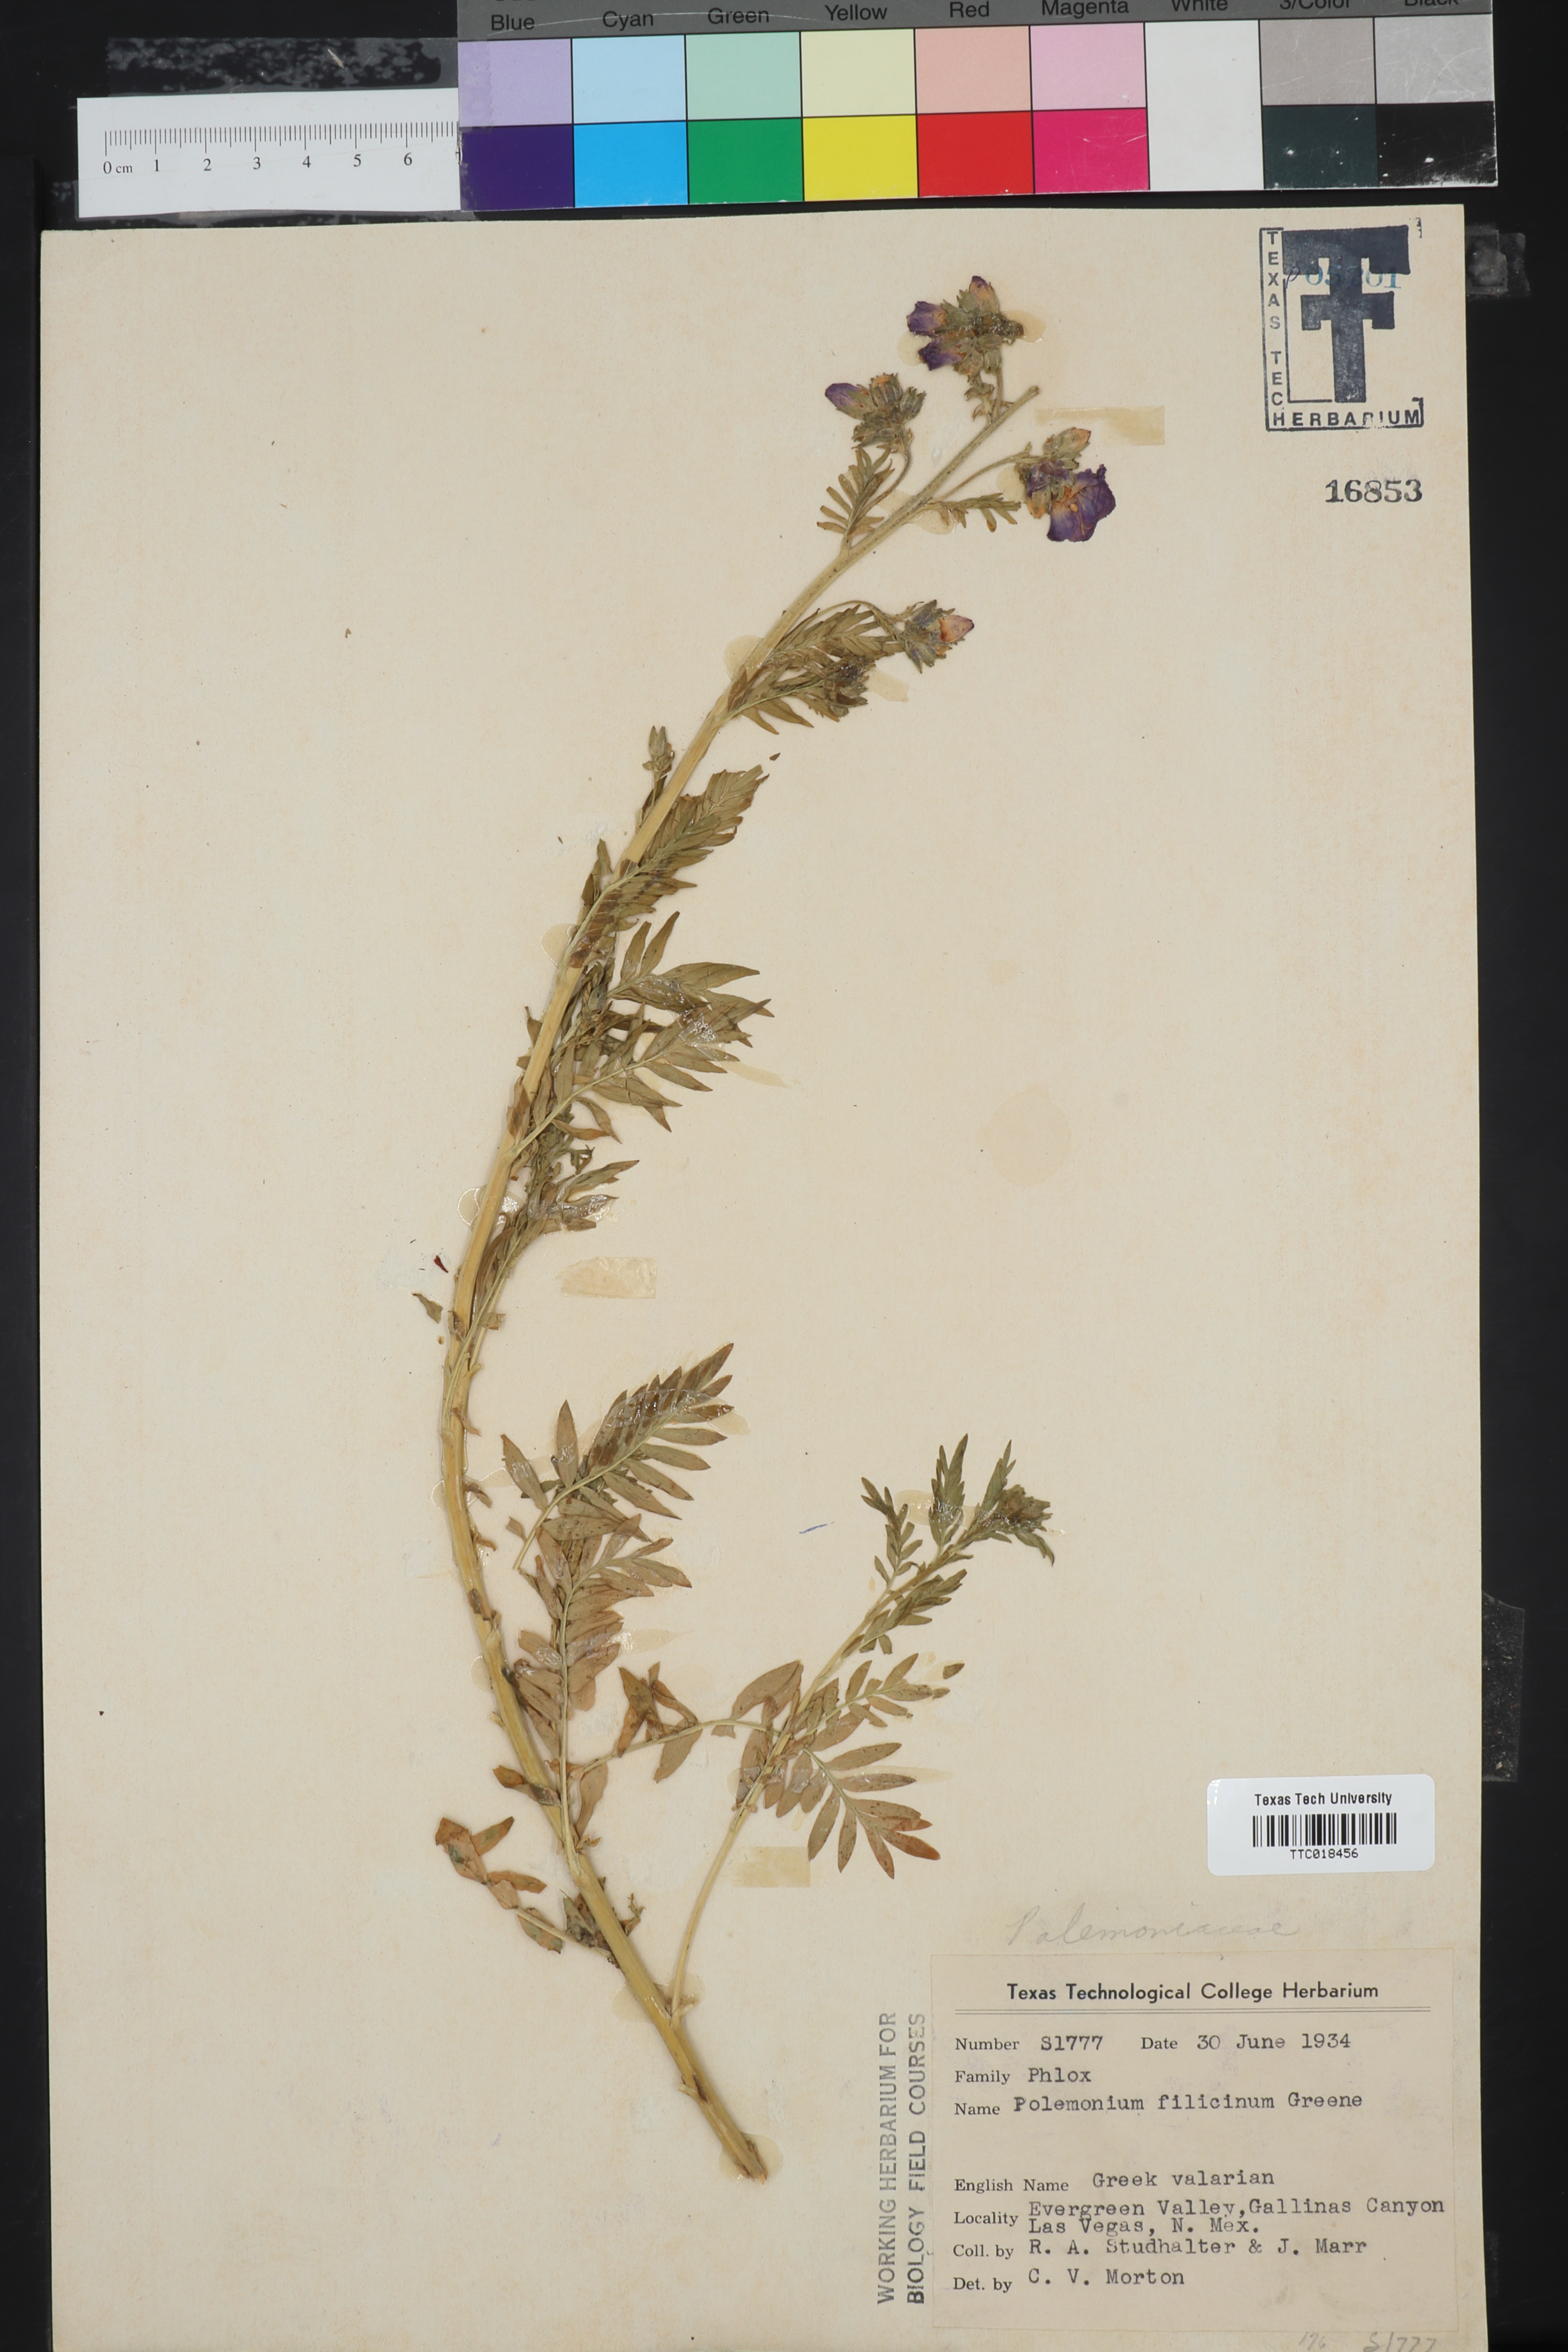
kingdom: Plantae
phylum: Tracheophyta
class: Magnoliopsida
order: Ericales
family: Polemoniaceae
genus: Polemonium
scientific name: Polemonium foliosissimum
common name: Leafy jacob's-ladder
